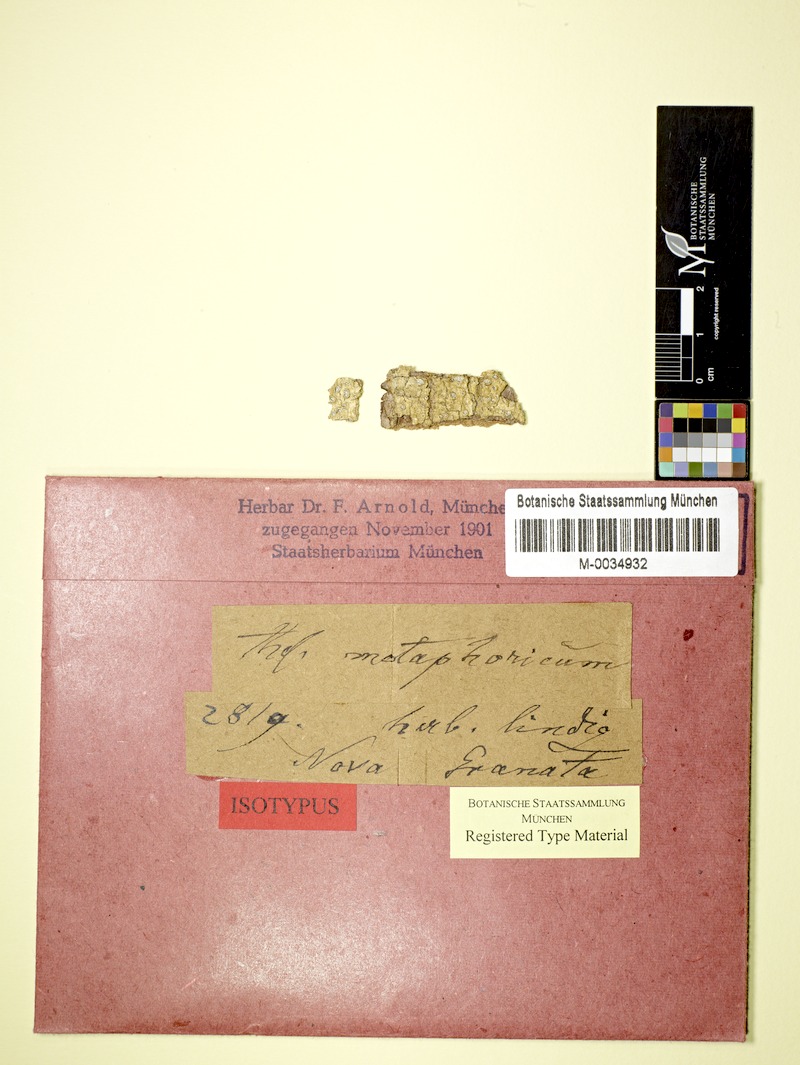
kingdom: Fungi
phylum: Ascomycota
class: Lecanoromycetes
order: Ostropales
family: Graphidaceae
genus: Stegobolus
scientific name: Stegobolus metaphoricus
